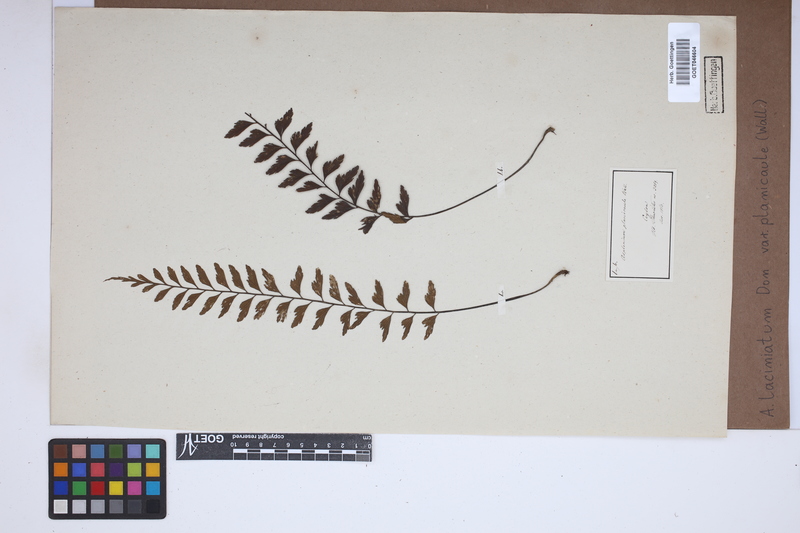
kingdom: Plantae
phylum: Tracheophyta
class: Polypodiopsida
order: Polypodiales
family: Aspleniaceae
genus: Asplenium
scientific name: Asplenium lividum
